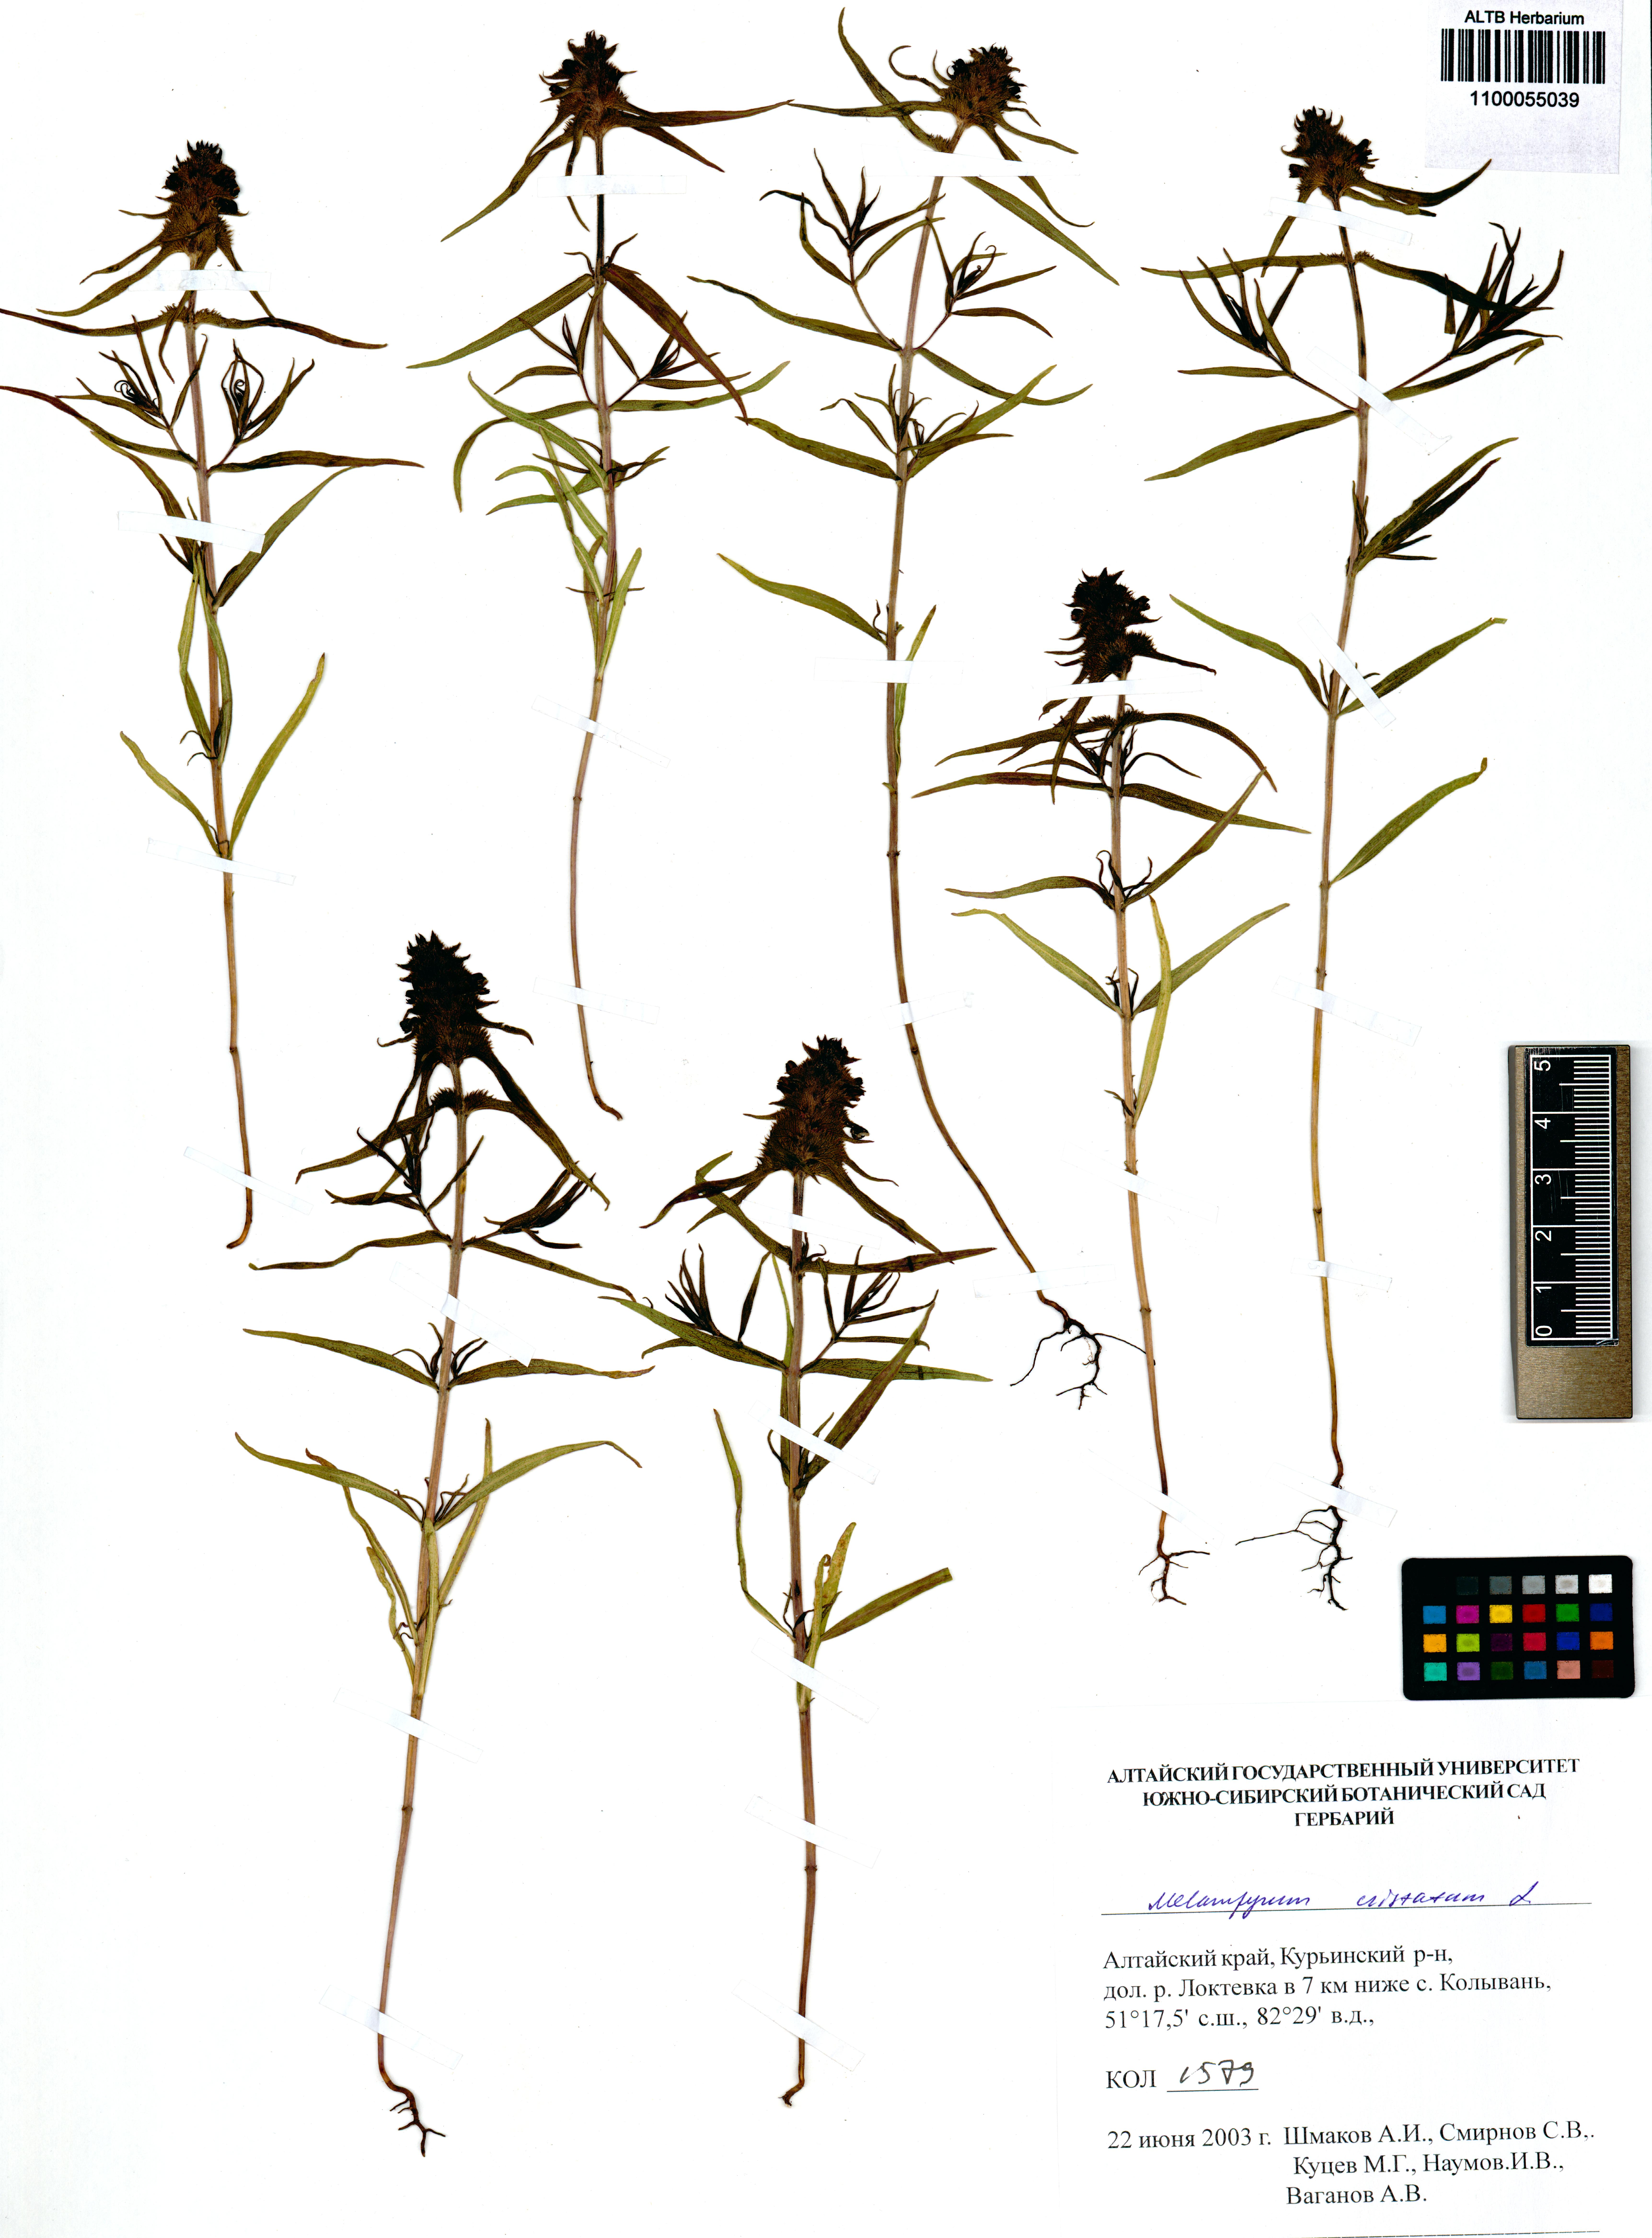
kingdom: Plantae
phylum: Tracheophyta
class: Magnoliopsida
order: Lamiales
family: Orobanchaceae
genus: Melampyrum
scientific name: Melampyrum cristatum
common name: Crested cow-wheat
